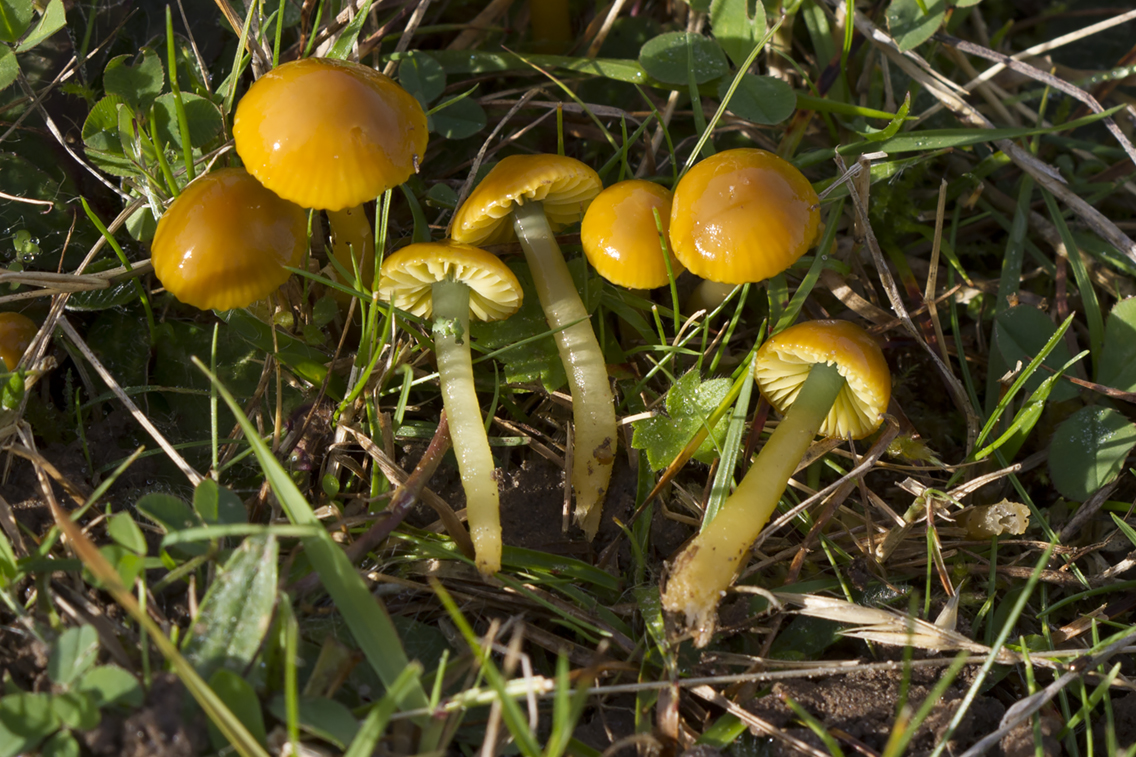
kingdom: Fungi
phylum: Basidiomycota
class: Agaricomycetes
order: Agaricales
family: Hygrophoraceae
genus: Gliophorus
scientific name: Gliophorus psittacinus
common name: papegøje-vokshat
